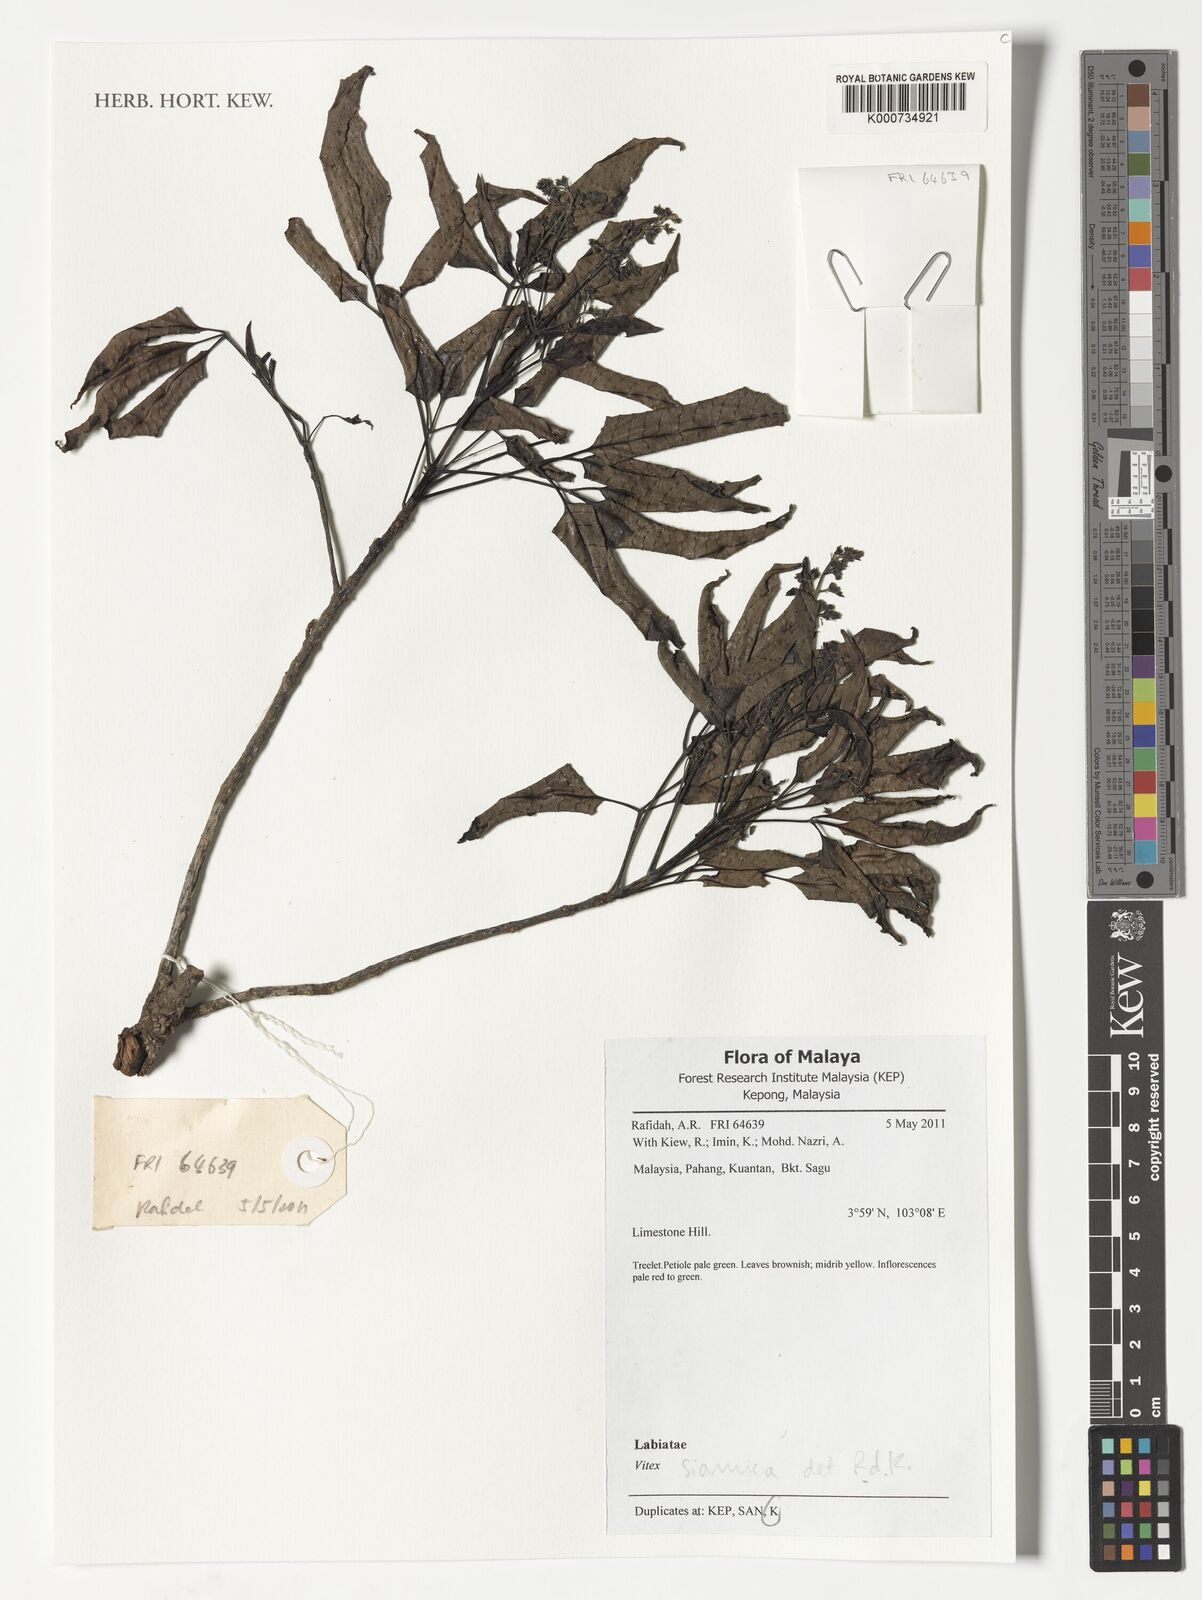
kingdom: Plantae
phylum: Tracheophyta
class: Magnoliopsida
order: Lamiales
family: Lamiaceae
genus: Vitex
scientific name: Vitex siamica
